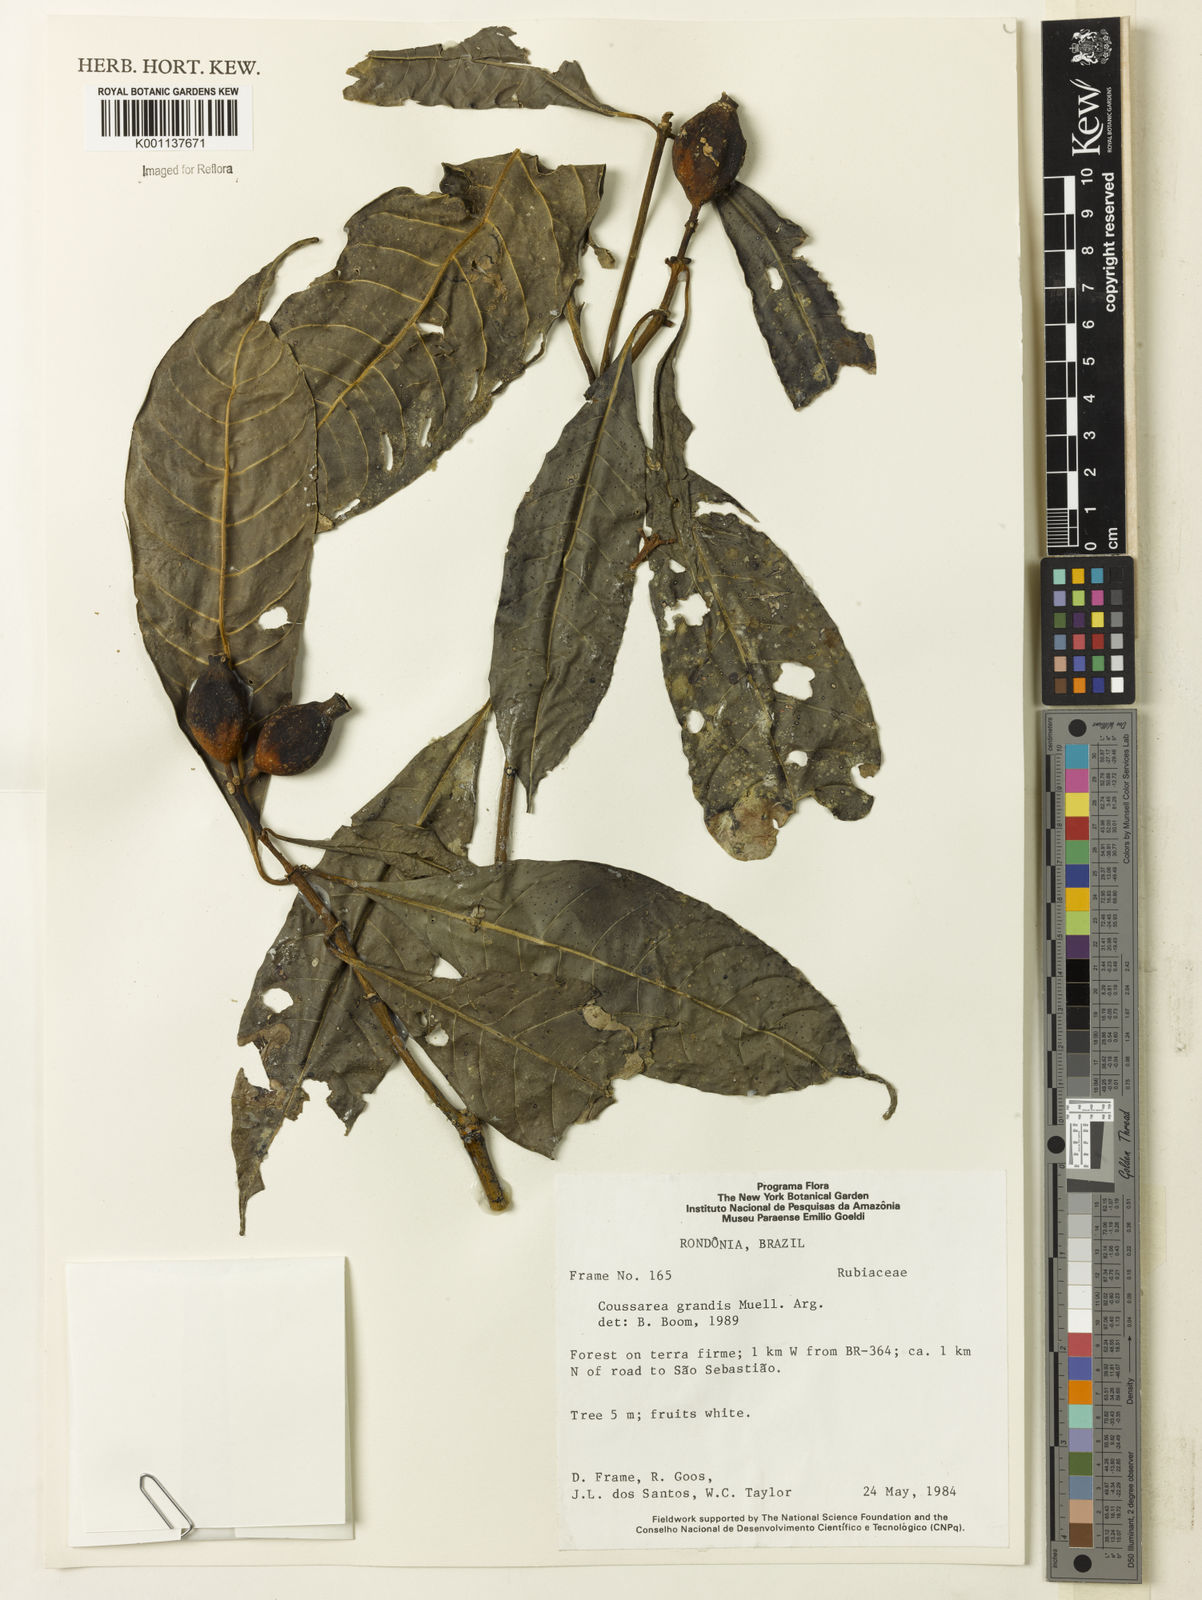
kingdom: Plantae
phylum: Tracheophyta
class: Magnoliopsida
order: Gentianales
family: Rubiaceae
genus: Coussarea
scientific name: Coussarea
